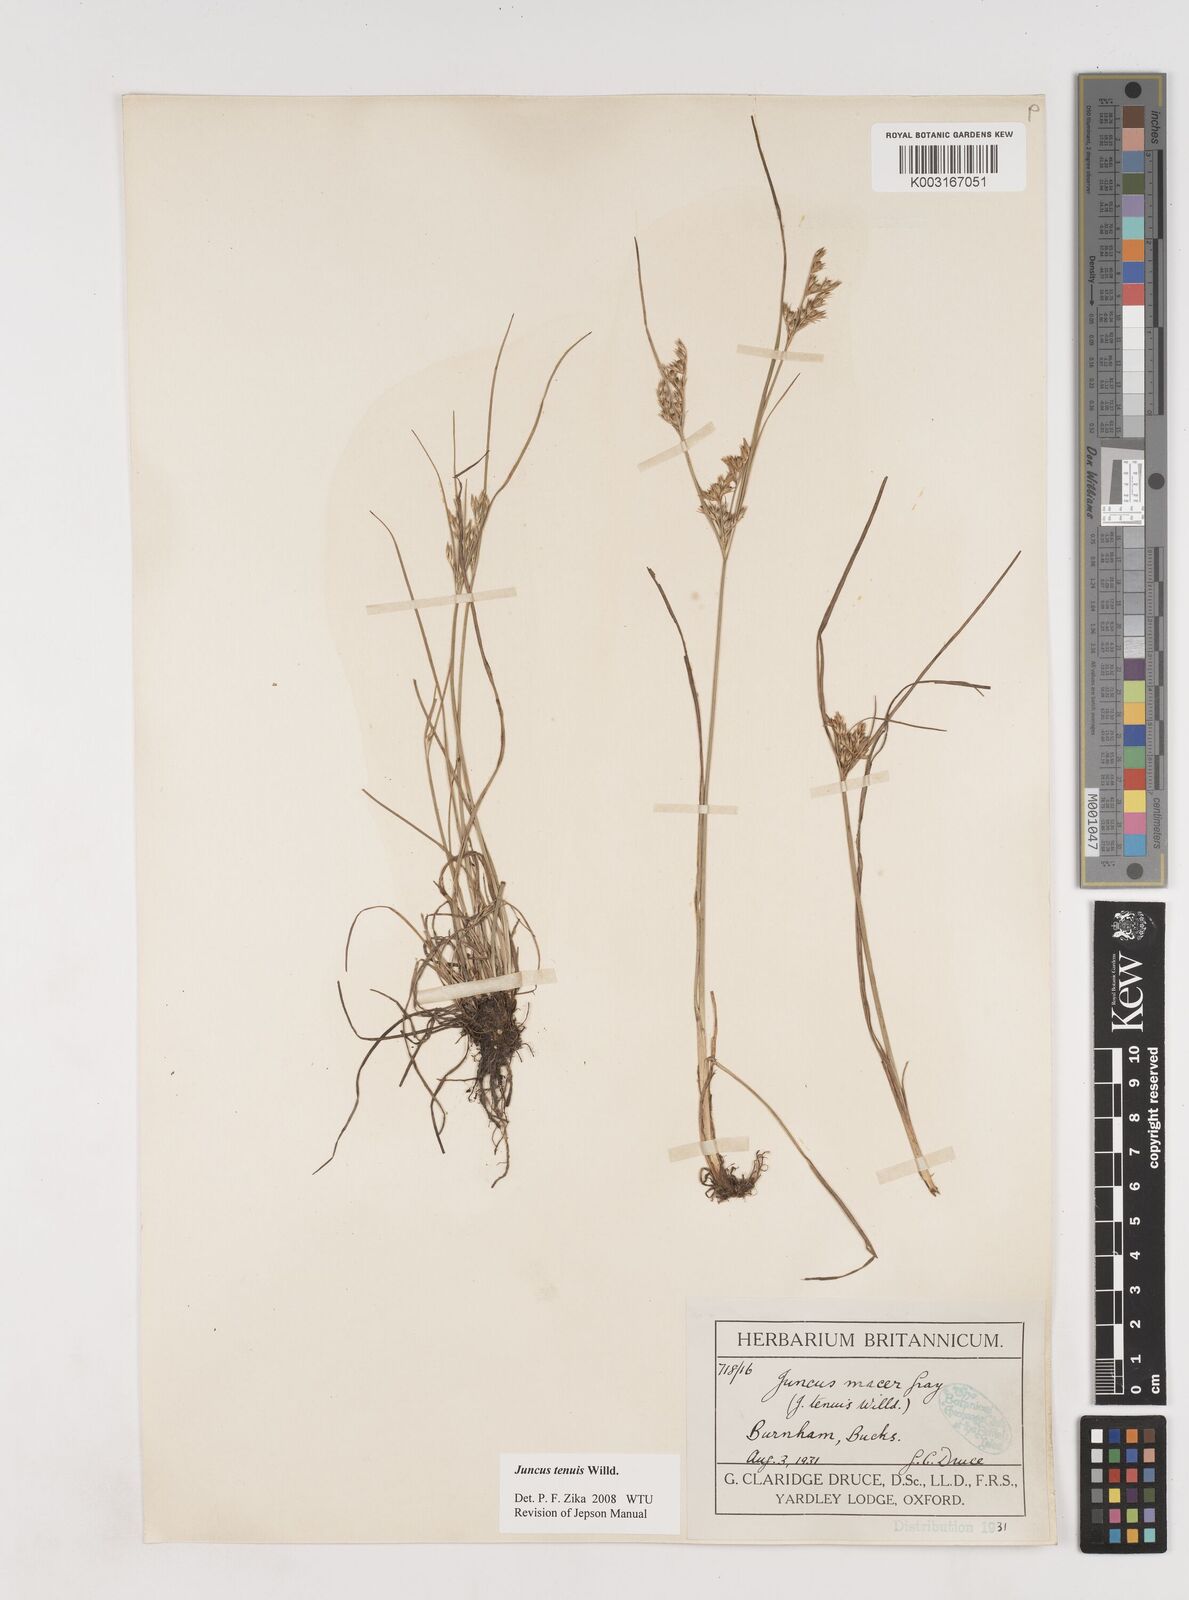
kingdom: Plantae
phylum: Tracheophyta
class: Liliopsida
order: Poales
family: Juncaceae
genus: Juncus
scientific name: Juncus tenuis
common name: Slender rush
